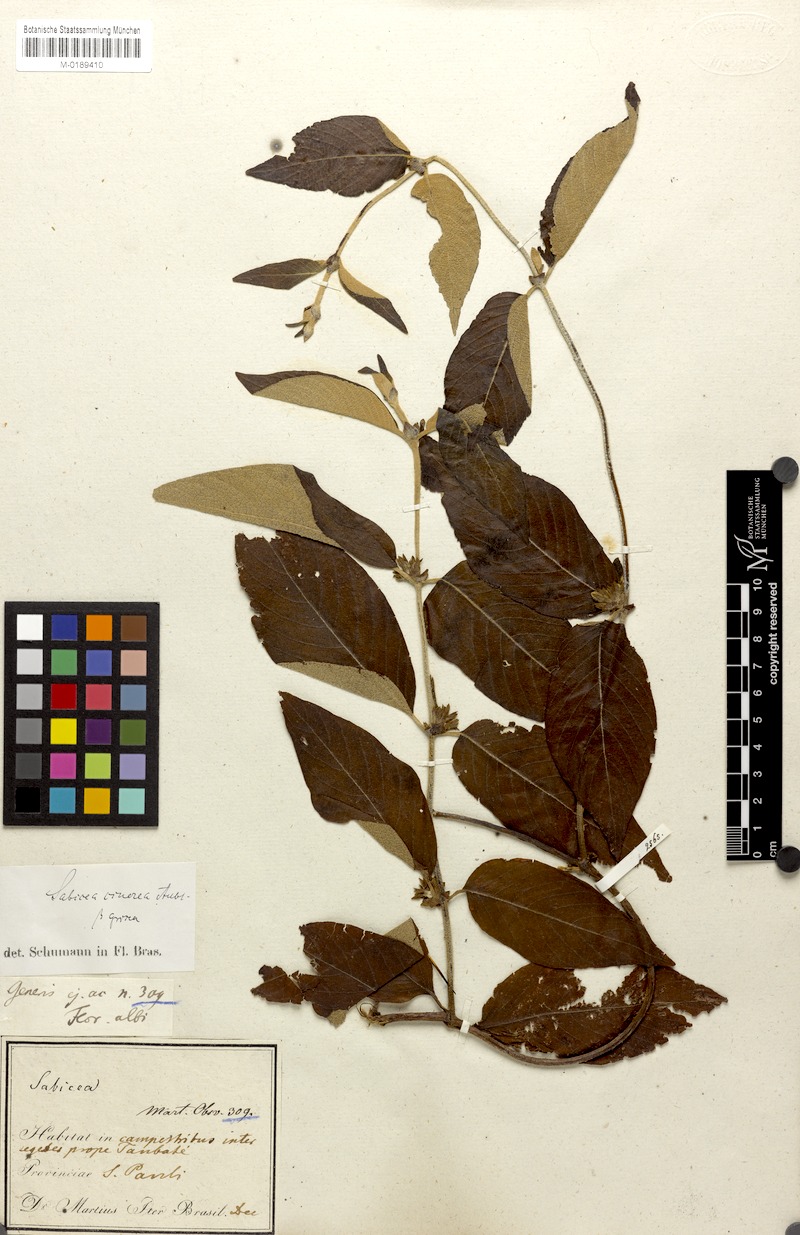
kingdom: Plantae
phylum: Tracheophyta
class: Magnoliopsida
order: Gentianales
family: Rubiaceae
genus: Sabicea
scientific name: Sabicea cinerea
